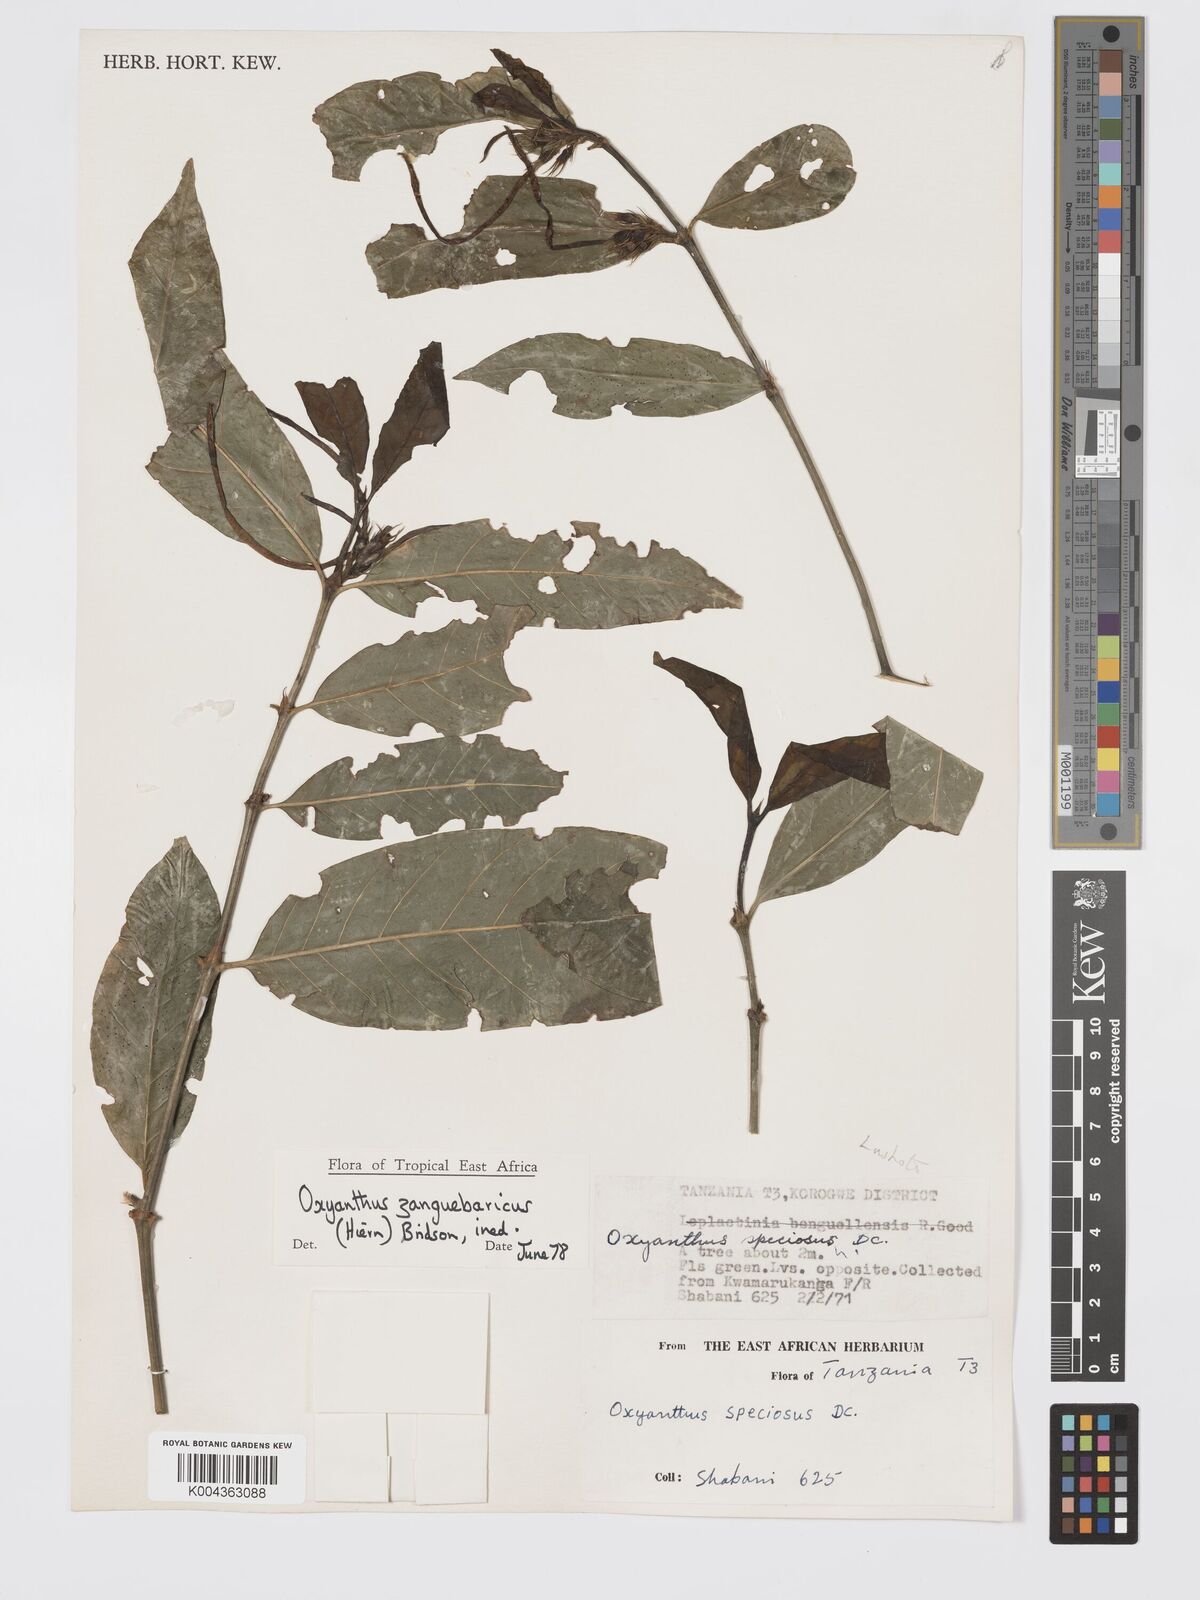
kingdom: Plantae
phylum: Tracheophyta
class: Magnoliopsida
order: Gentianales
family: Rubiaceae
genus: Oxyanthus
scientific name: Oxyanthus zanguebaricus
